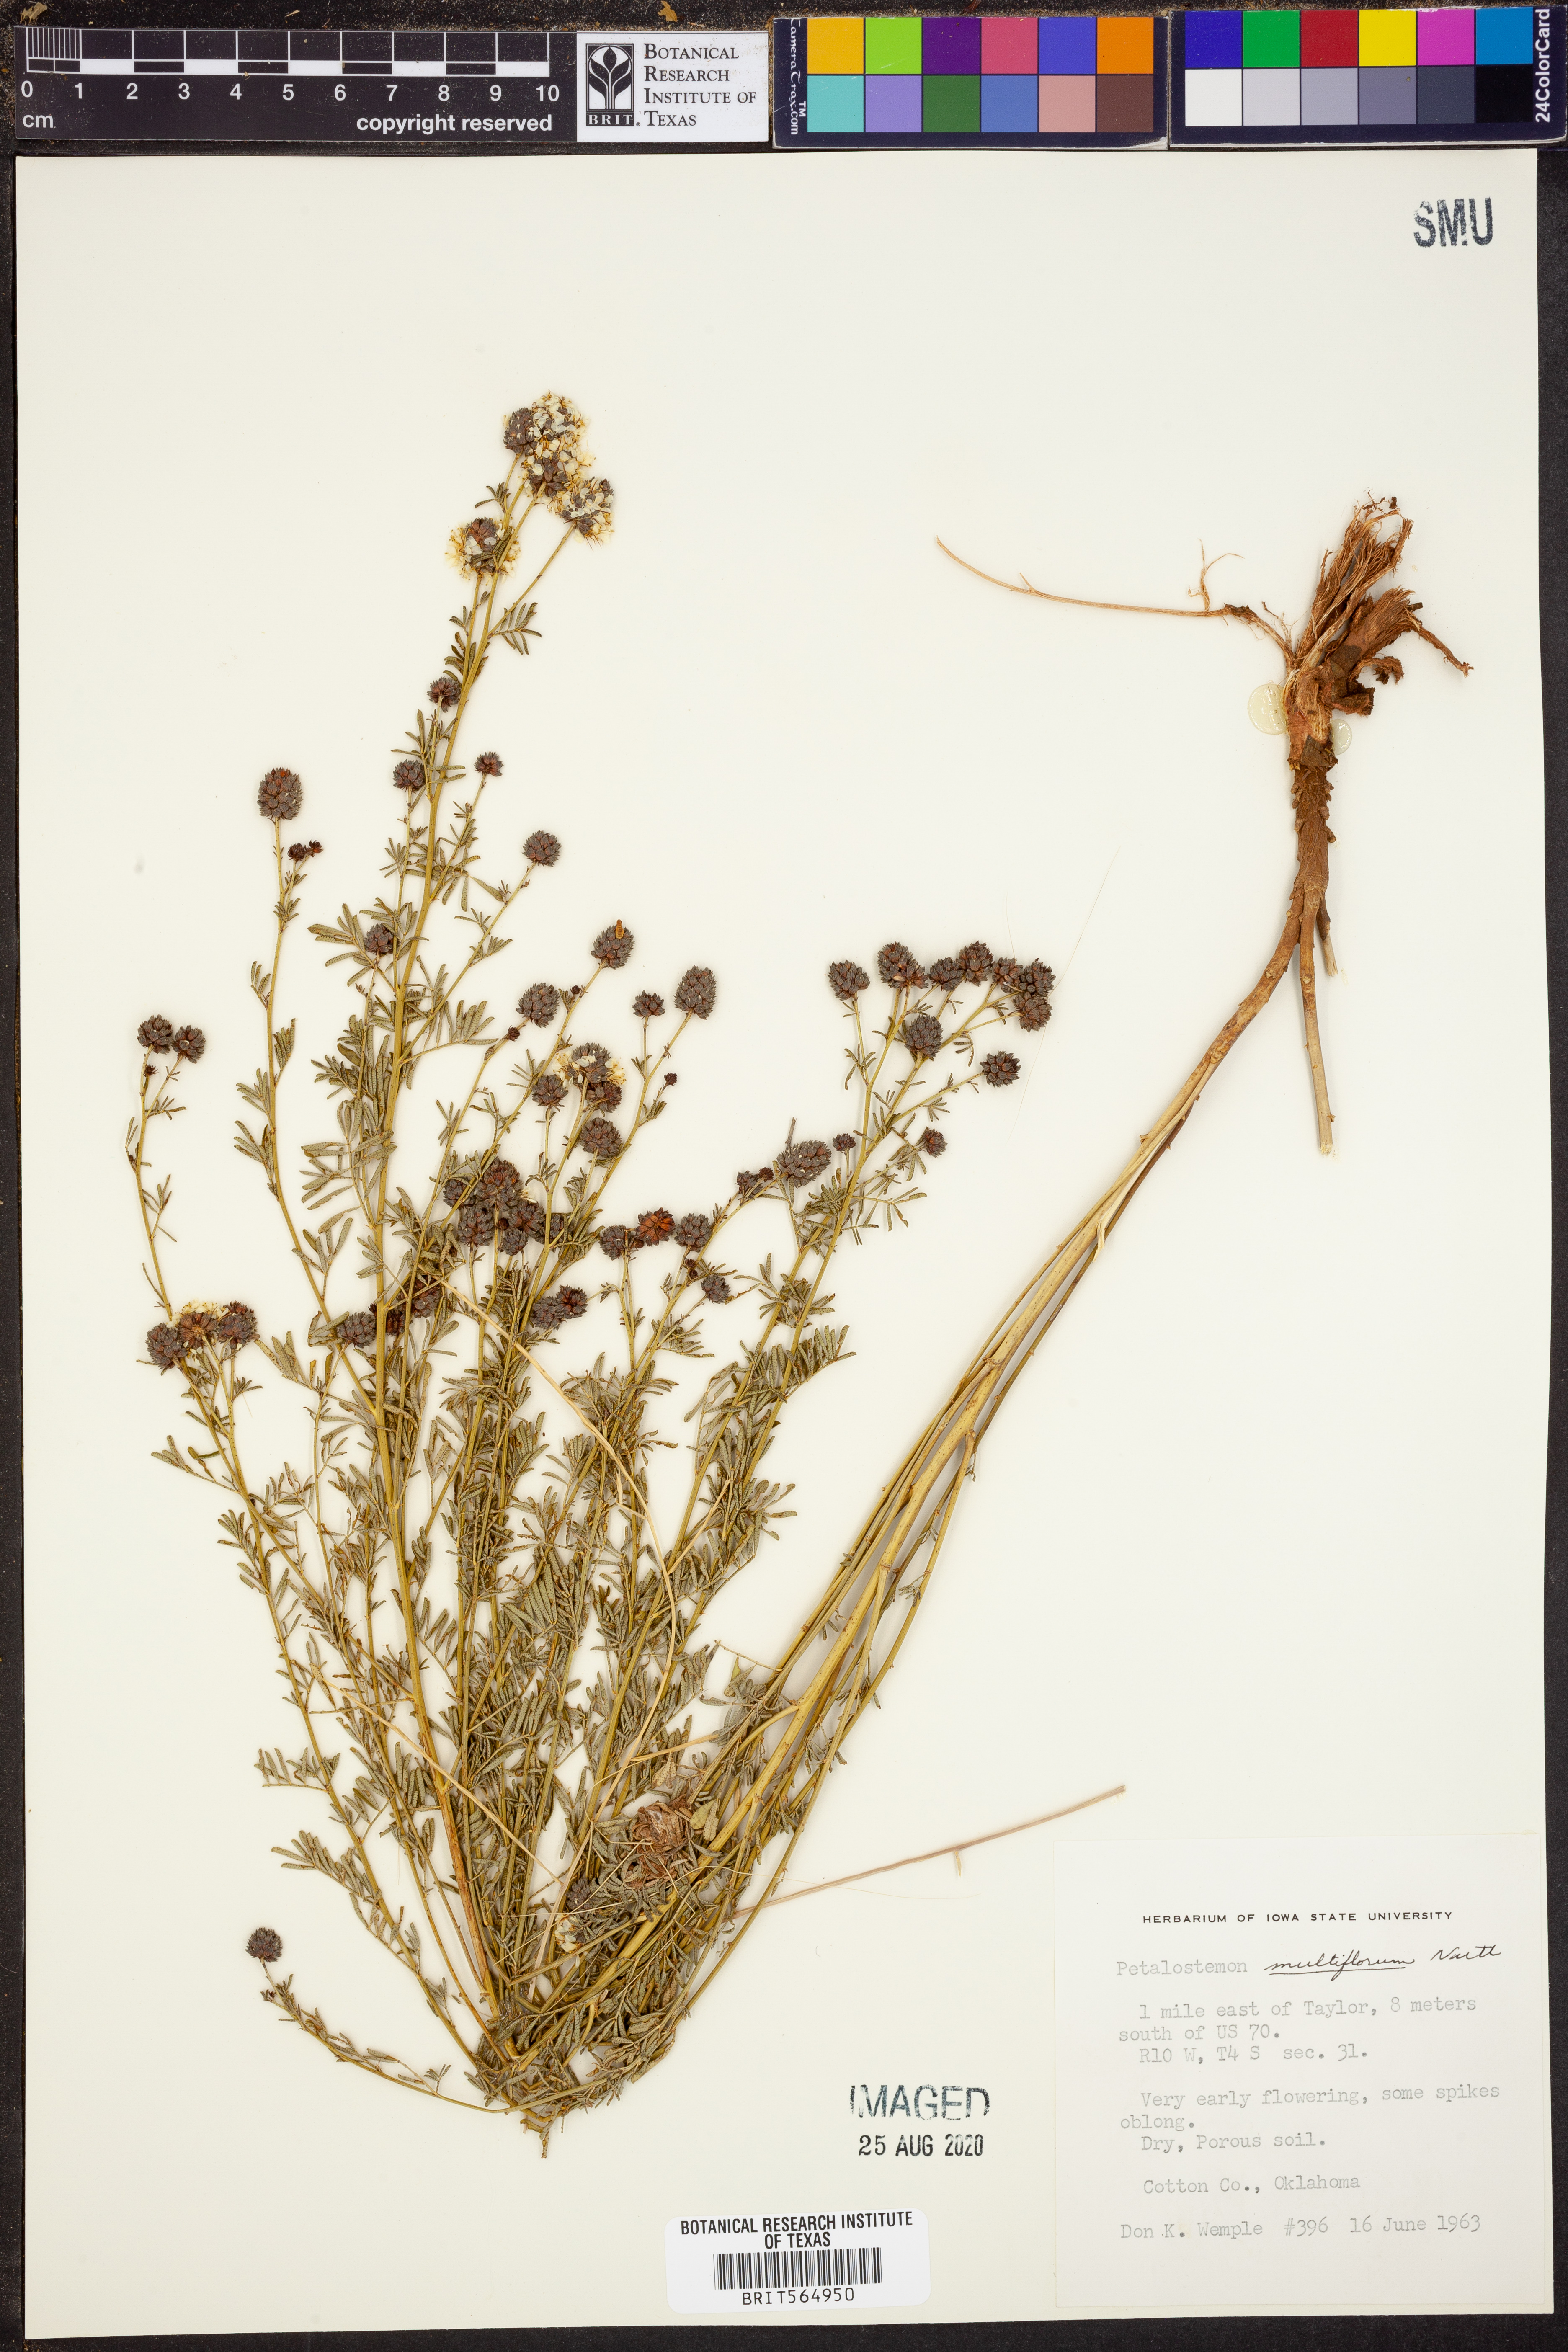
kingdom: Plantae
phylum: Tracheophyta
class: Magnoliopsida
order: Fabales
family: Fabaceae
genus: Dalea
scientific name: Dalea multiflora
